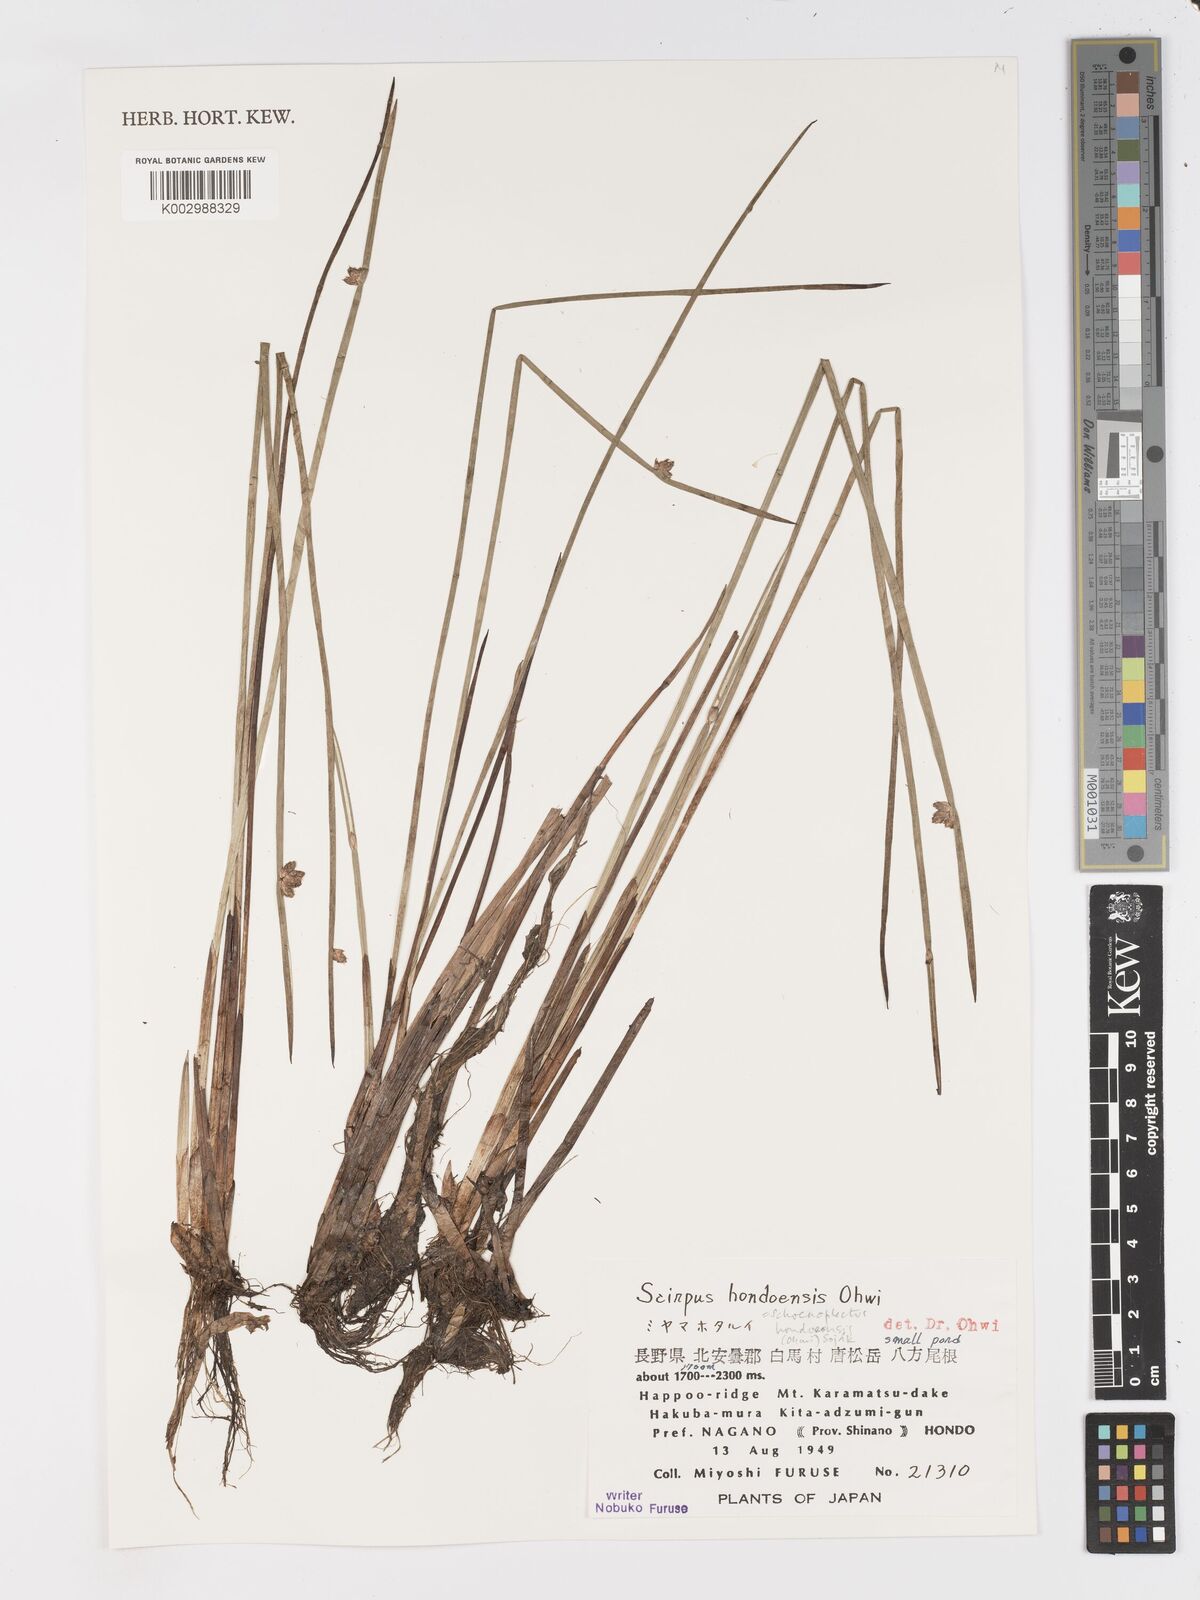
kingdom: Plantae
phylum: Tracheophyta
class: Liliopsida
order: Poales
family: Cyperaceae
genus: Schoenoplectiella
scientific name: Schoenoplectiella hondoensis
